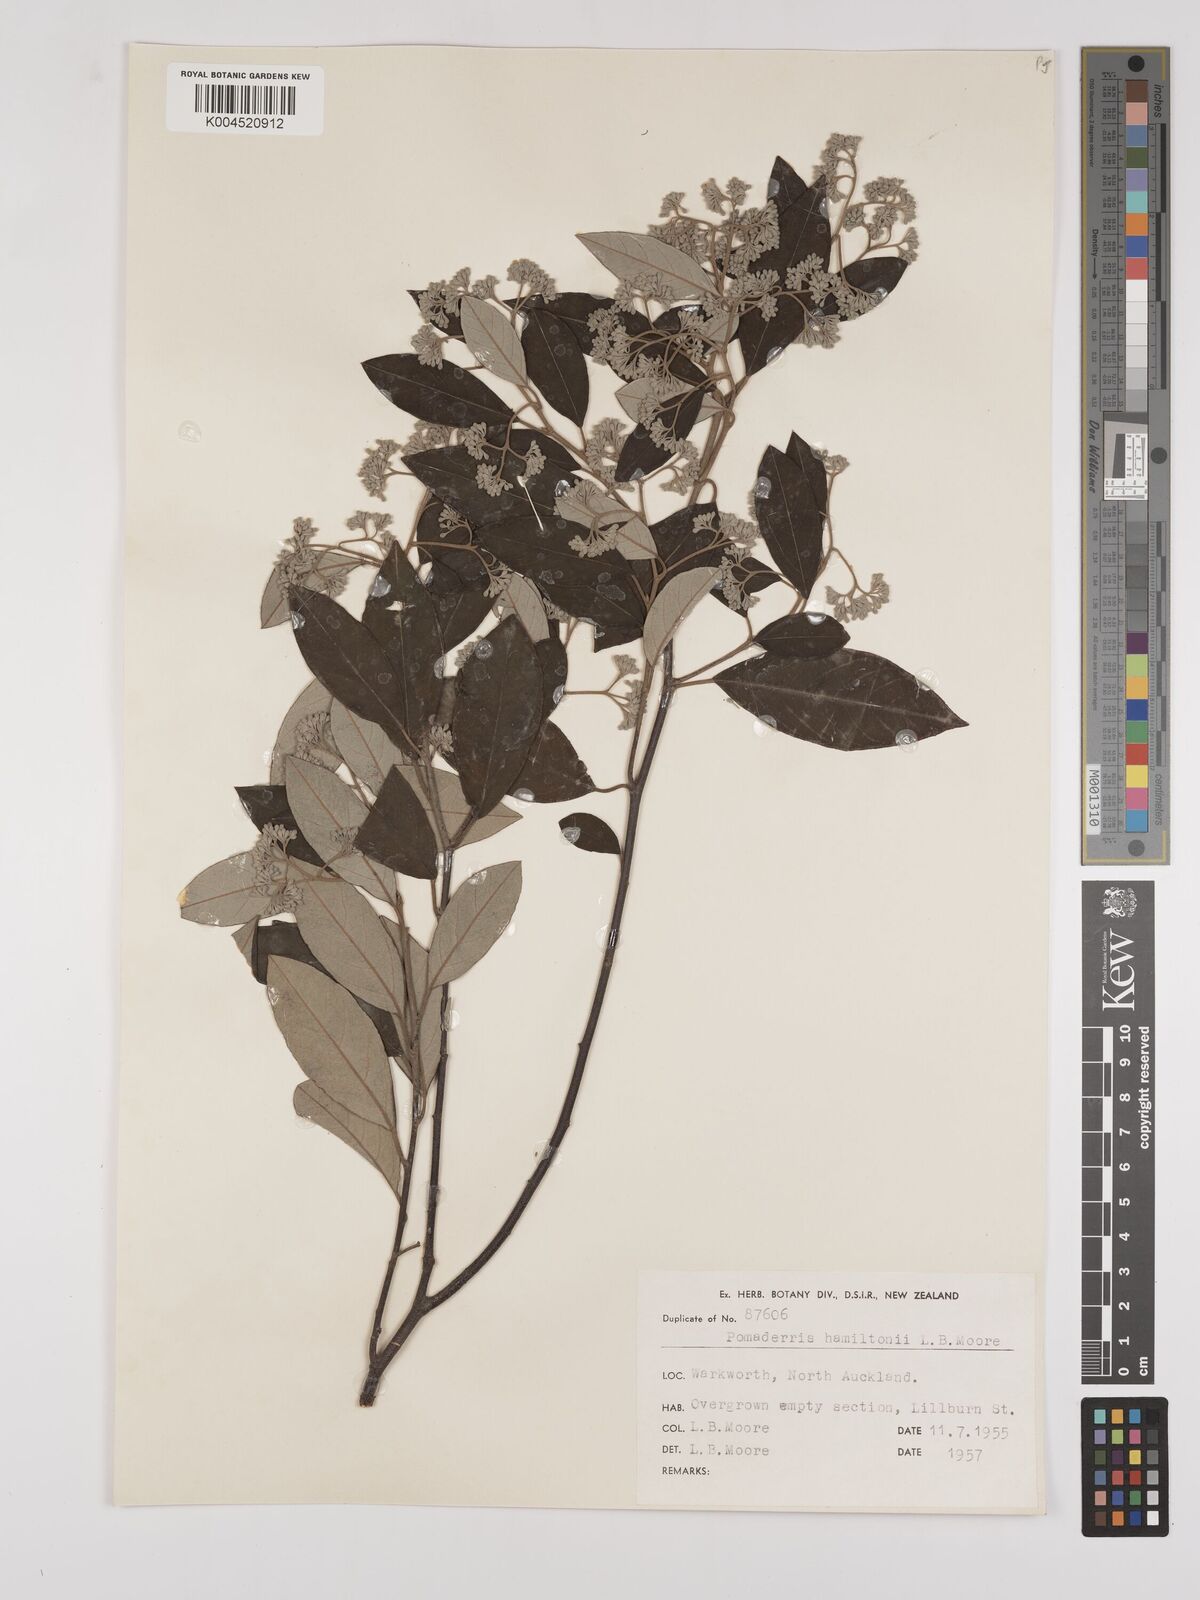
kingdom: Plantae
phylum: Tracheophyta
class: Magnoliopsida
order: Rosales
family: Rhamnaceae
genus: Pomaderris
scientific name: Pomaderris hamiltonii
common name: Pale-flowered kumarahou
